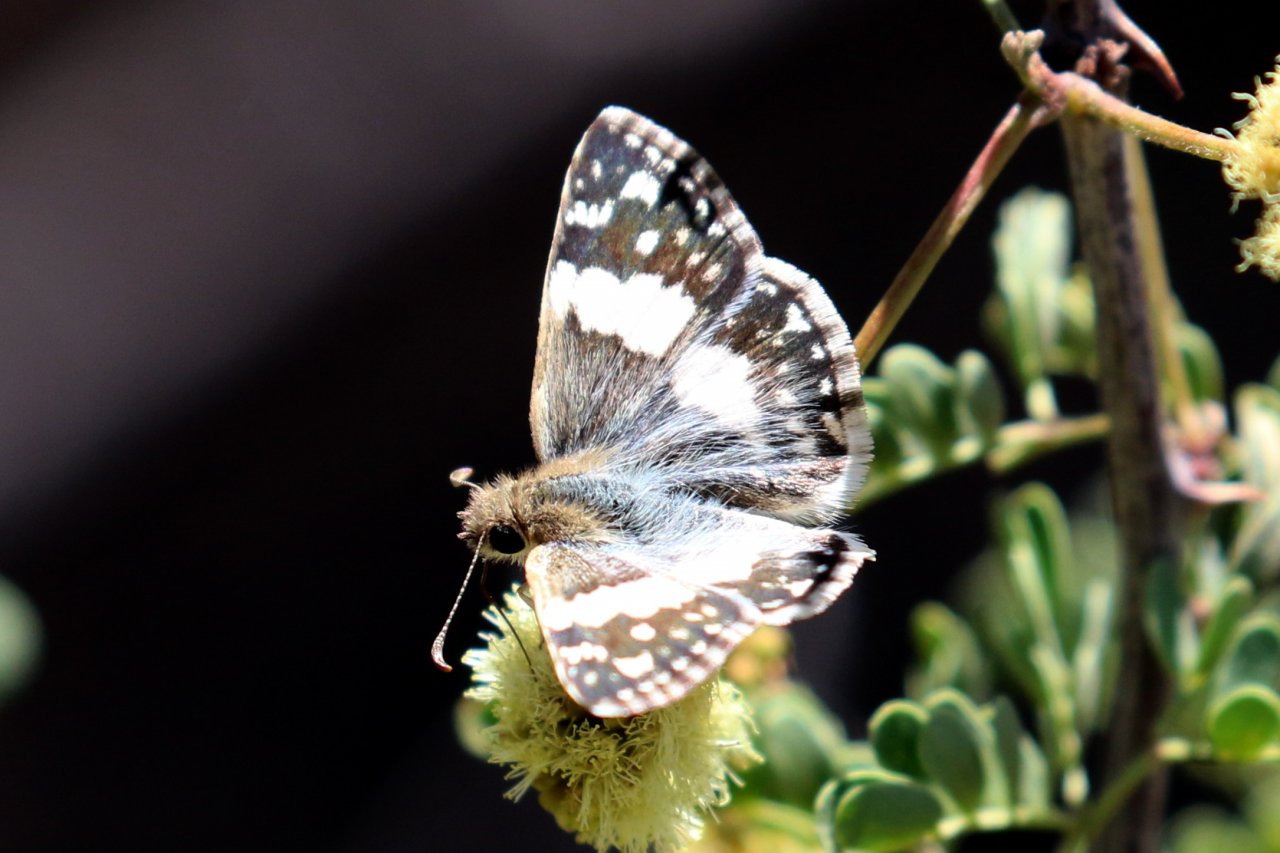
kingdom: Animalia
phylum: Arthropoda
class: Insecta
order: Lepidoptera
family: Hesperiidae
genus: Heliopyrgus
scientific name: Heliopyrgus domicella
